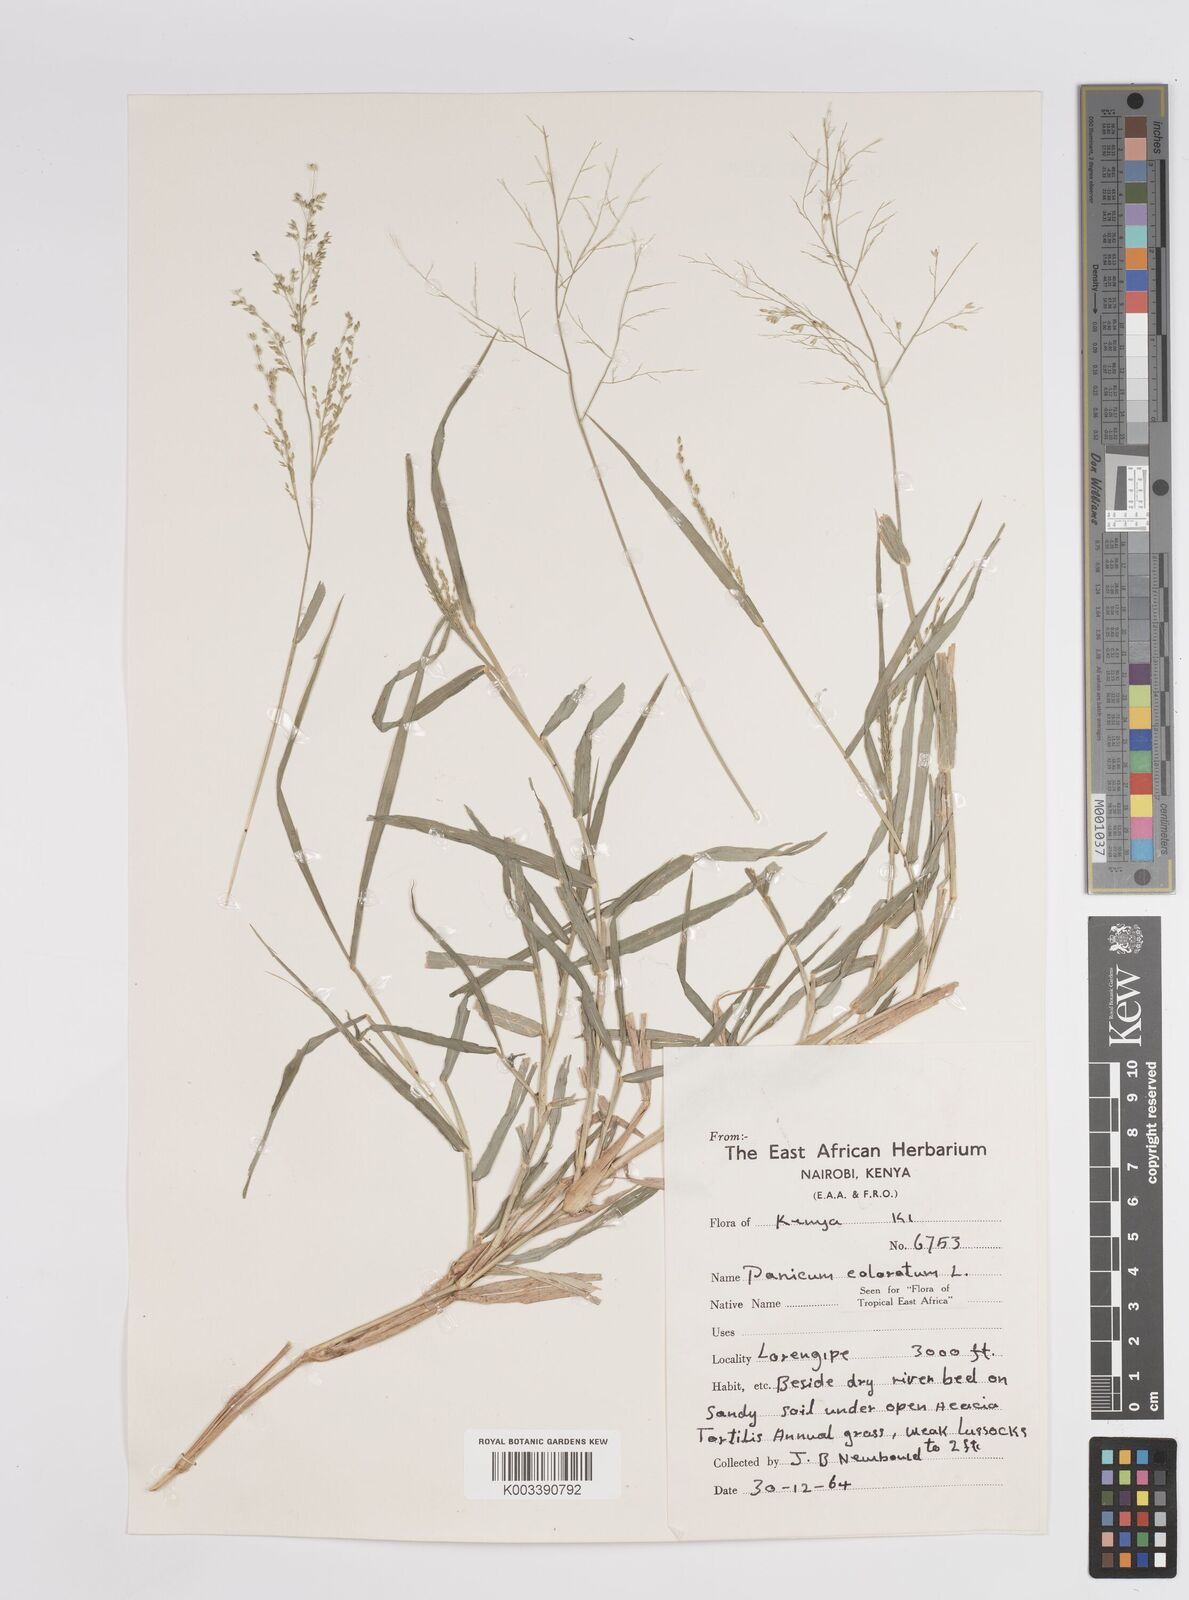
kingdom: Plantae
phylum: Tracheophyta
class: Liliopsida
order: Poales
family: Poaceae
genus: Panicum
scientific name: Panicum coloratum
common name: Kleingrass
